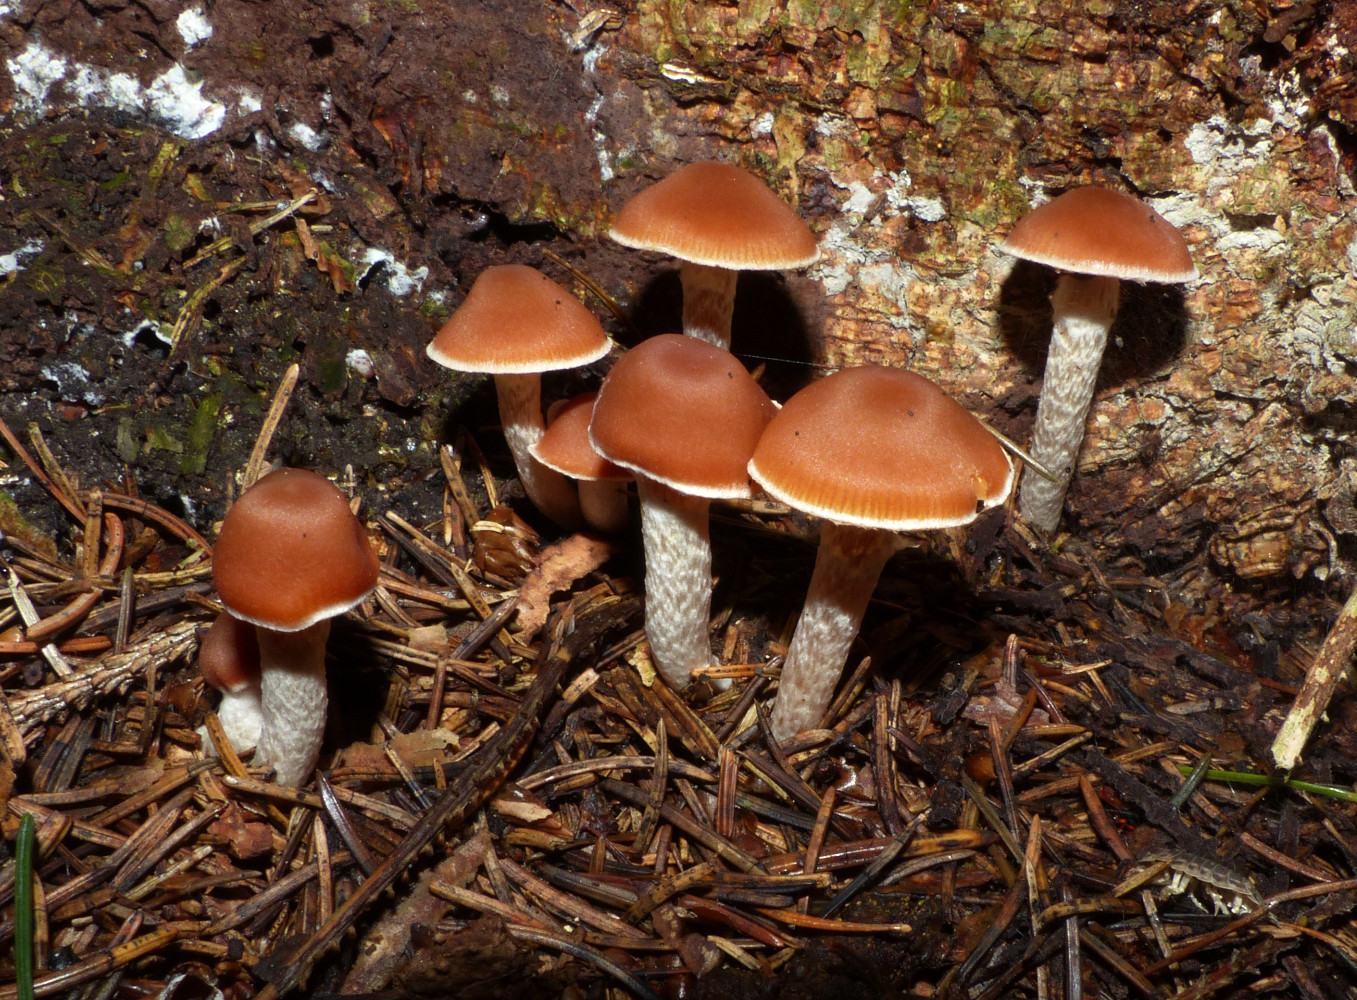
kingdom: Fungi
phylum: Basidiomycota
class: Agaricomycetes
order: Agaricales
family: Cortinariaceae
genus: Cortinarius
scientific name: Cortinarius
